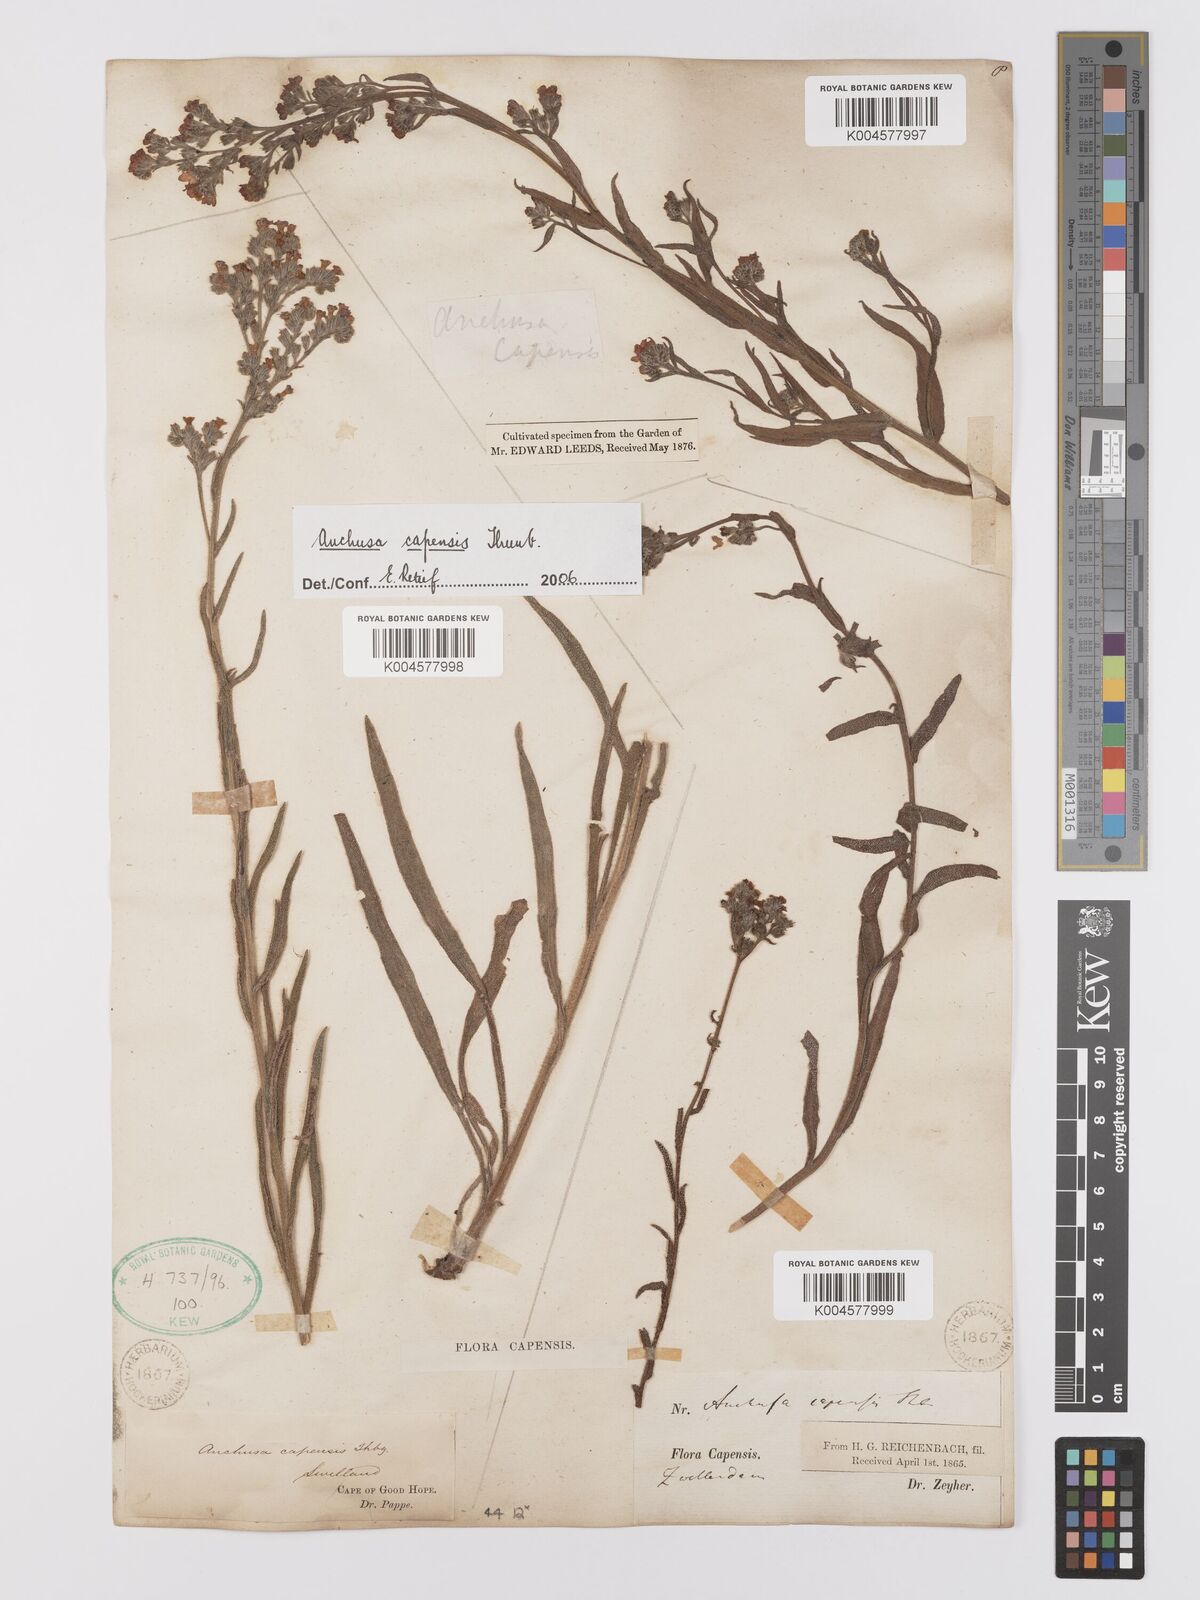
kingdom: Plantae
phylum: Tracheophyta
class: Magnoliopsida
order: Boraginales
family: Boraginaceae
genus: Anchusa
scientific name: Anchusa capensis
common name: Cape bugloss
